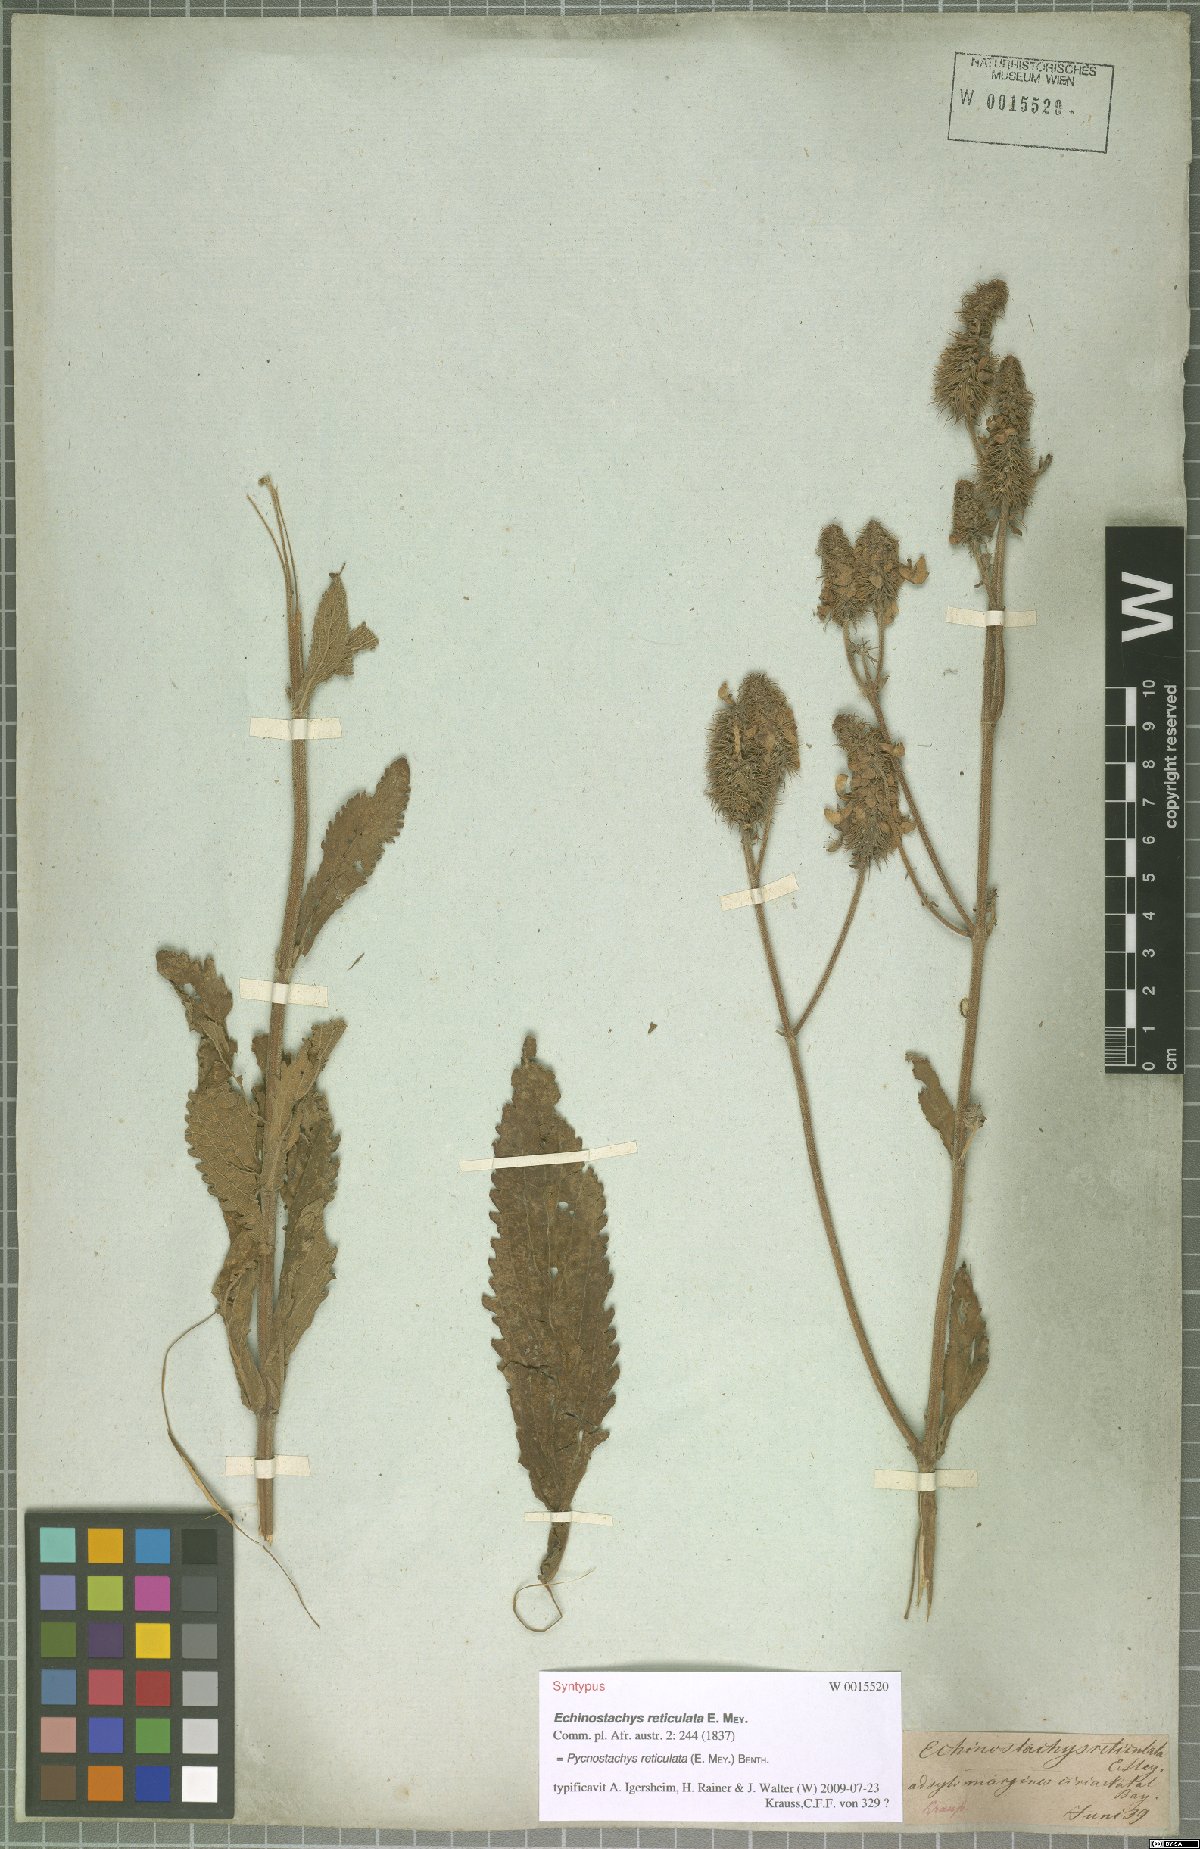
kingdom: Plantae
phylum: Tracheophyta
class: Magnoliopsida
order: Lamiales
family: Lamiaceae
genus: Coleus
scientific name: Coleus kirkii
